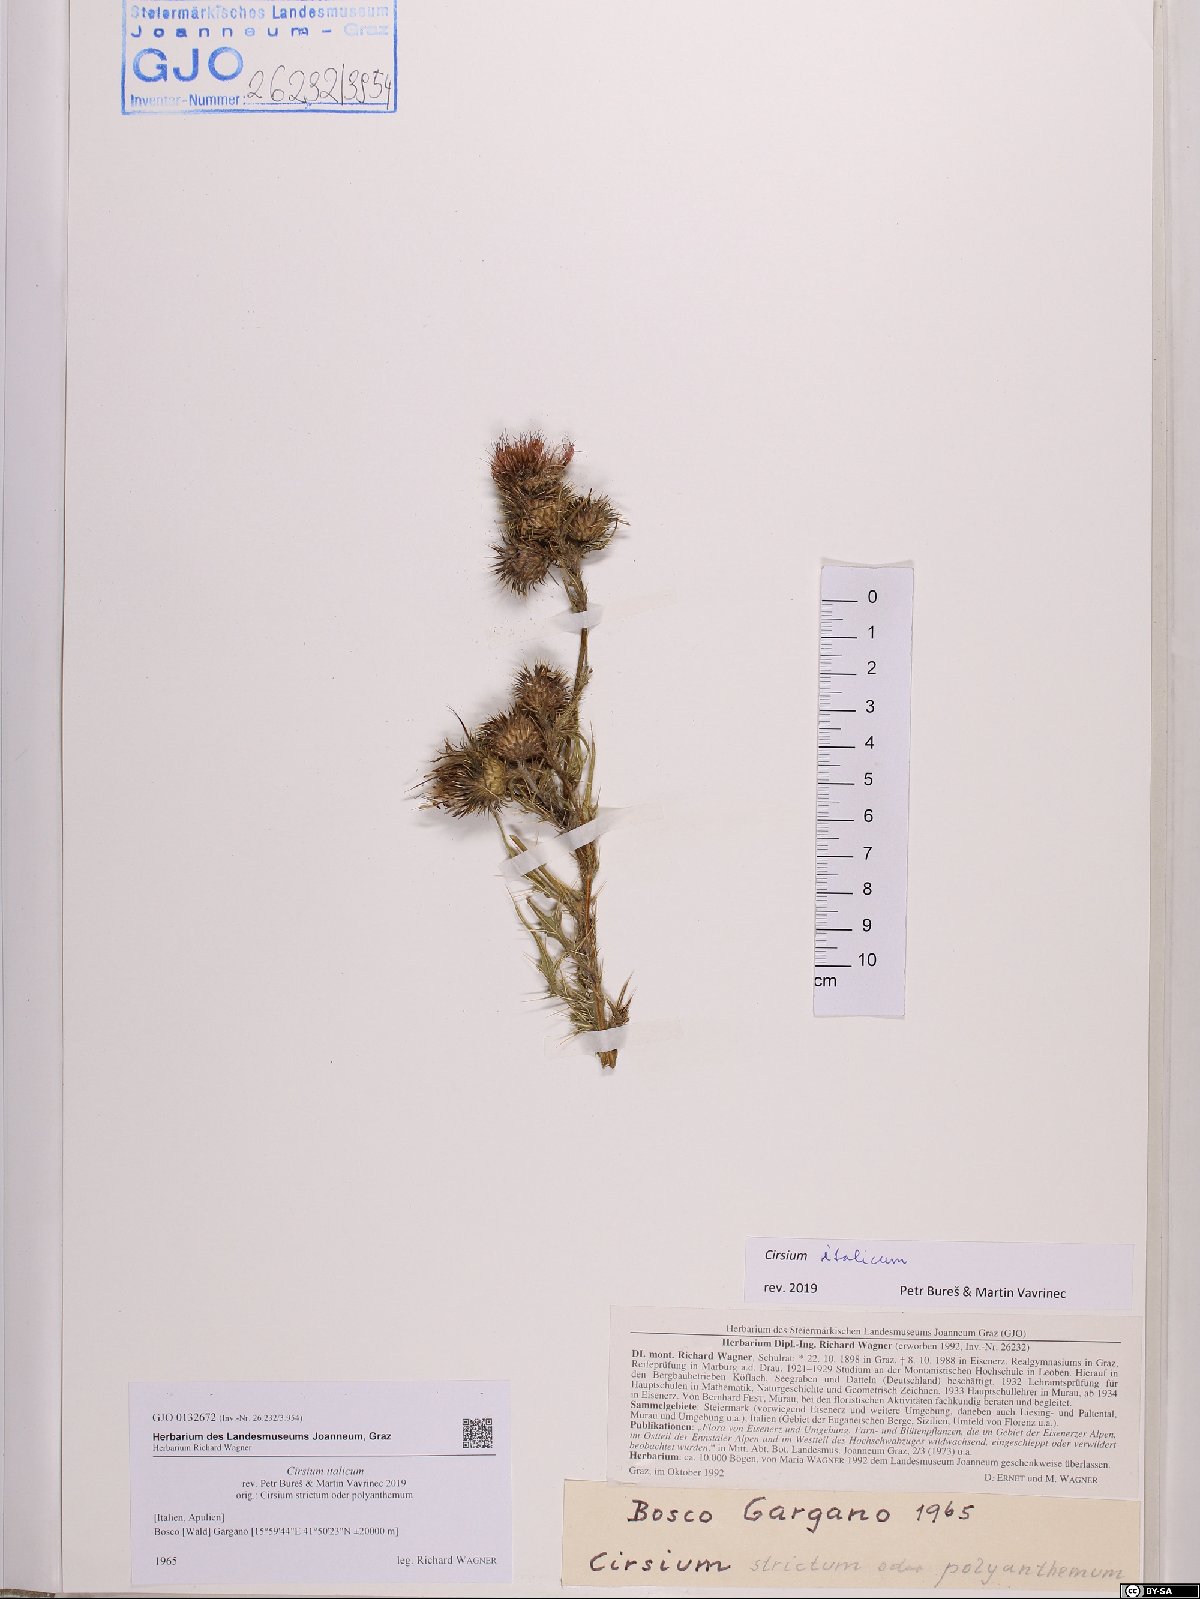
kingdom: Plantae
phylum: Tracheophyta
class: Magnoliopsida
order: Asterales
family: Asteraceae
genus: Epitrachys
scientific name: Epitrachys italica
